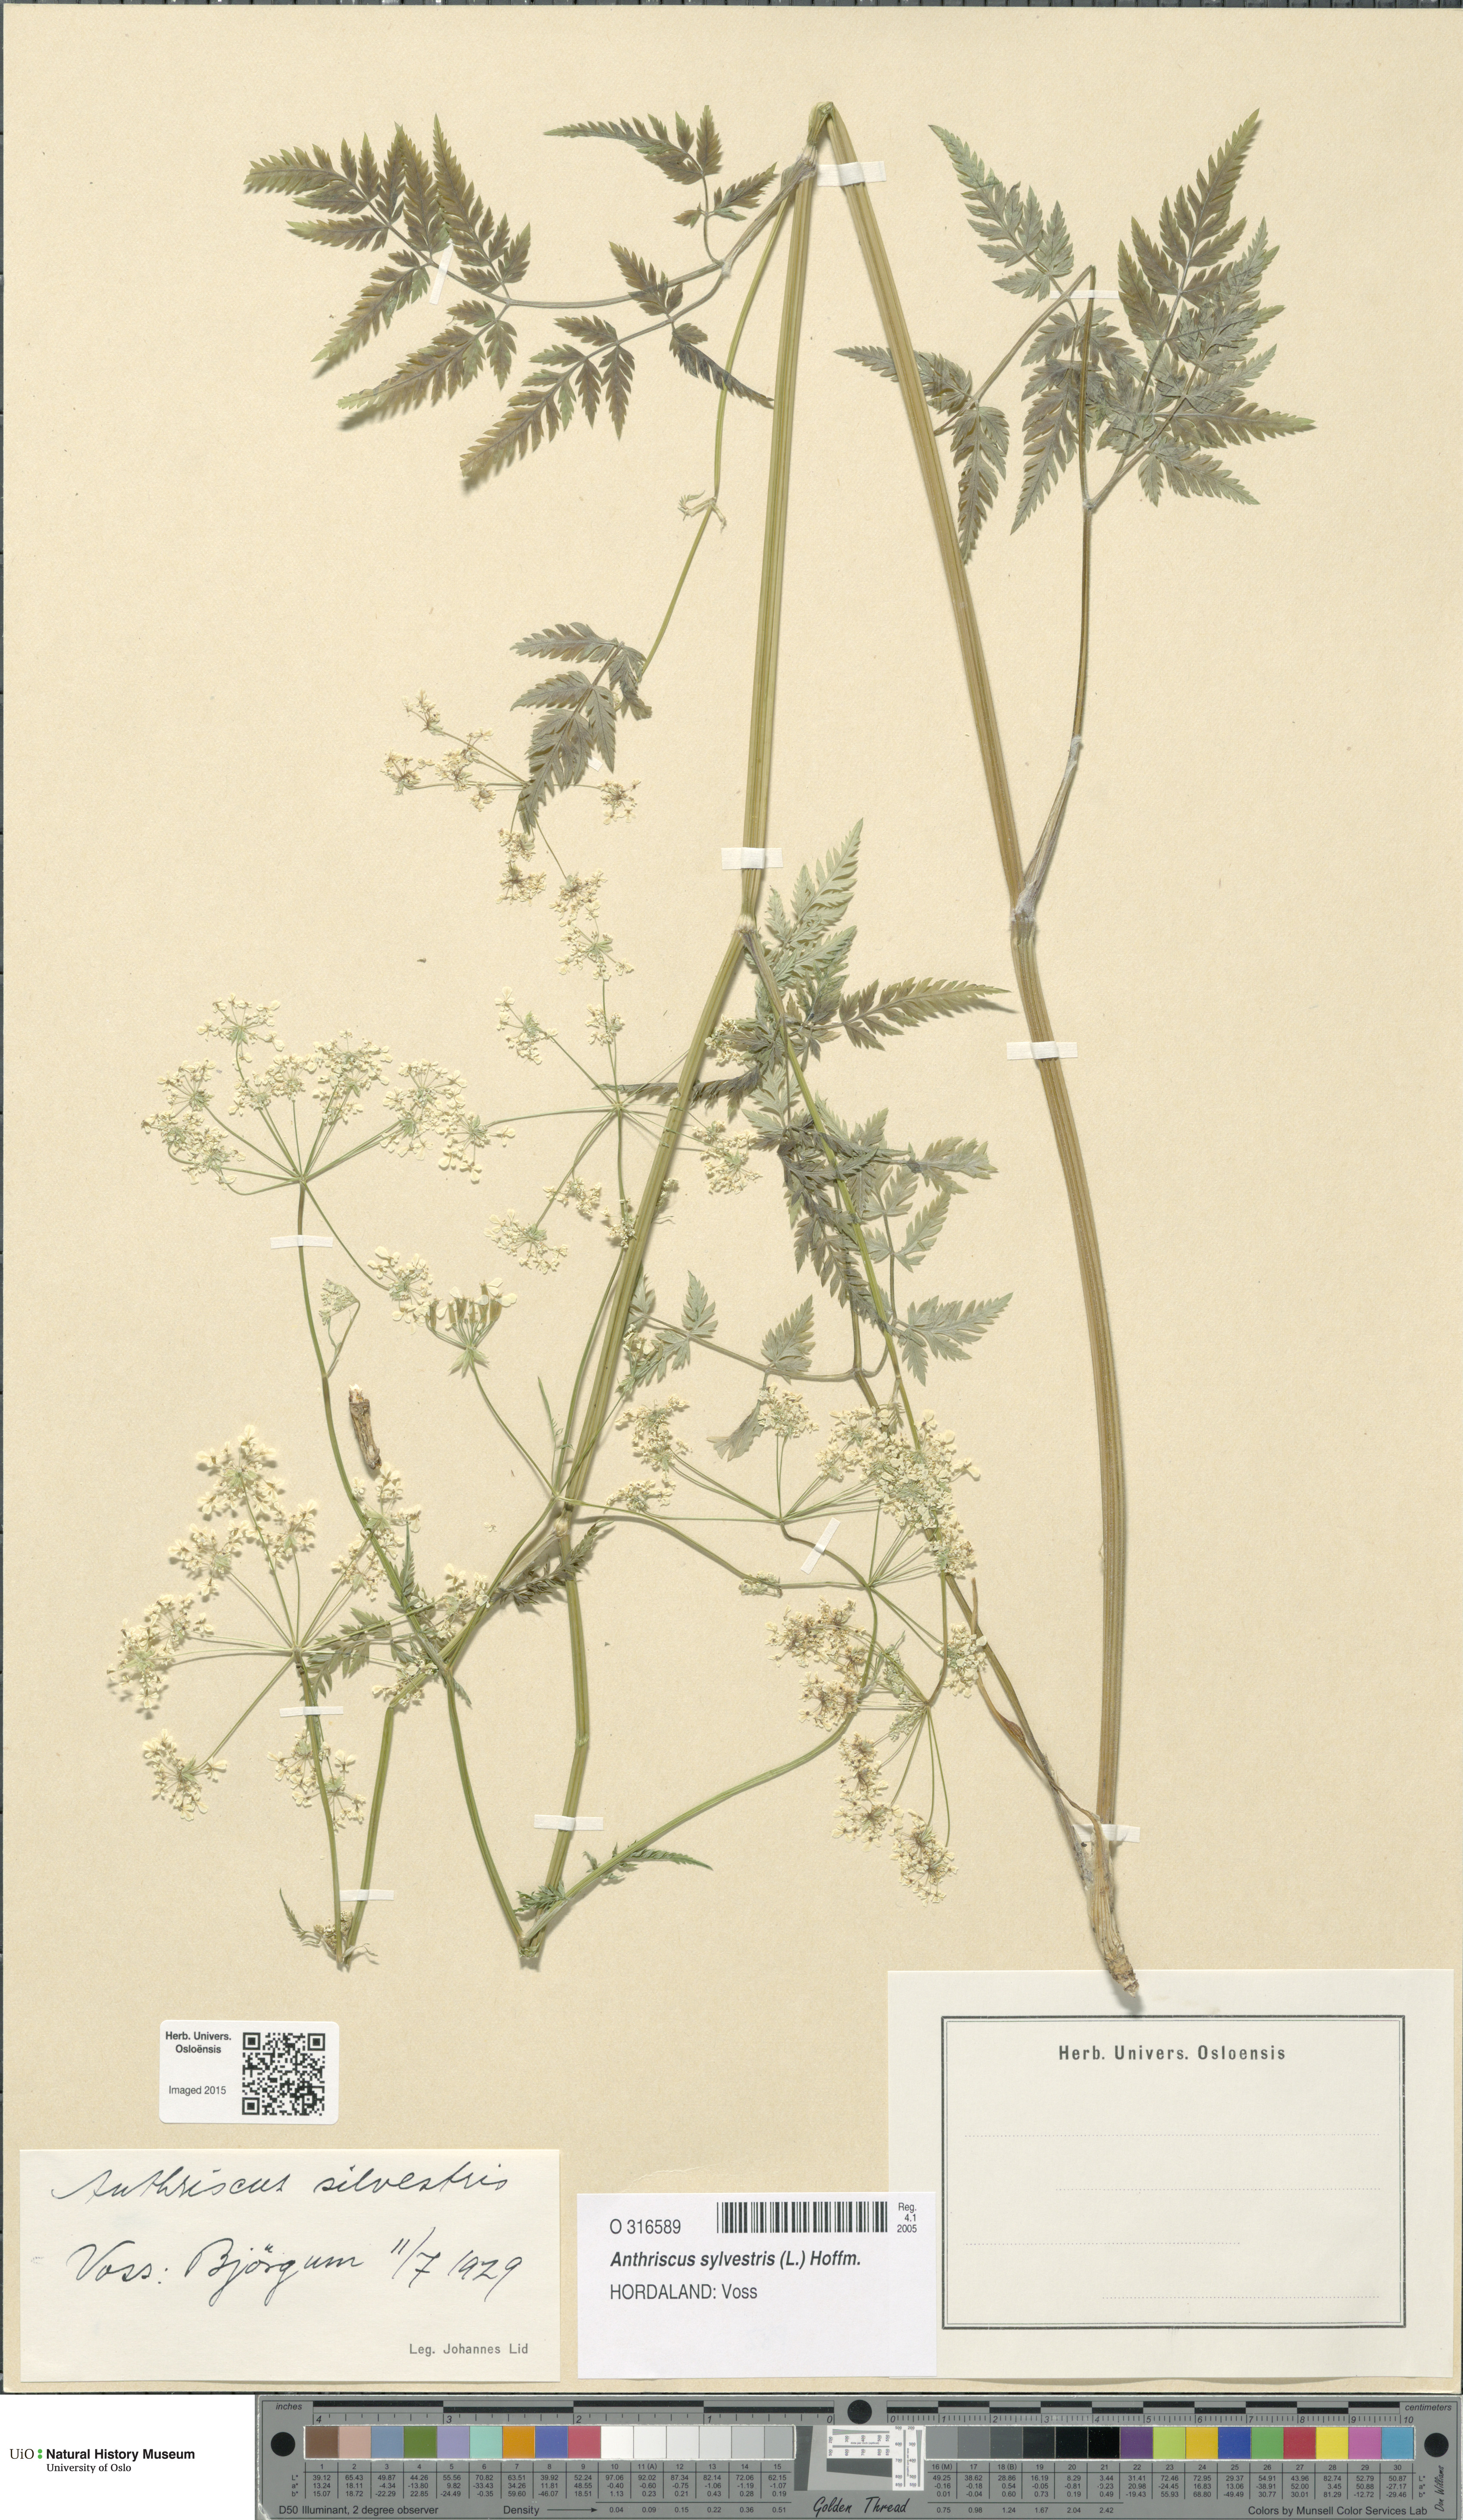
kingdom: Plantae
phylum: Tracheophyta
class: Magnoliopsida
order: Apiales
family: Apiaceae
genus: Anthriscus
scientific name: Anthriscus sylvestris
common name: Cow parsley
